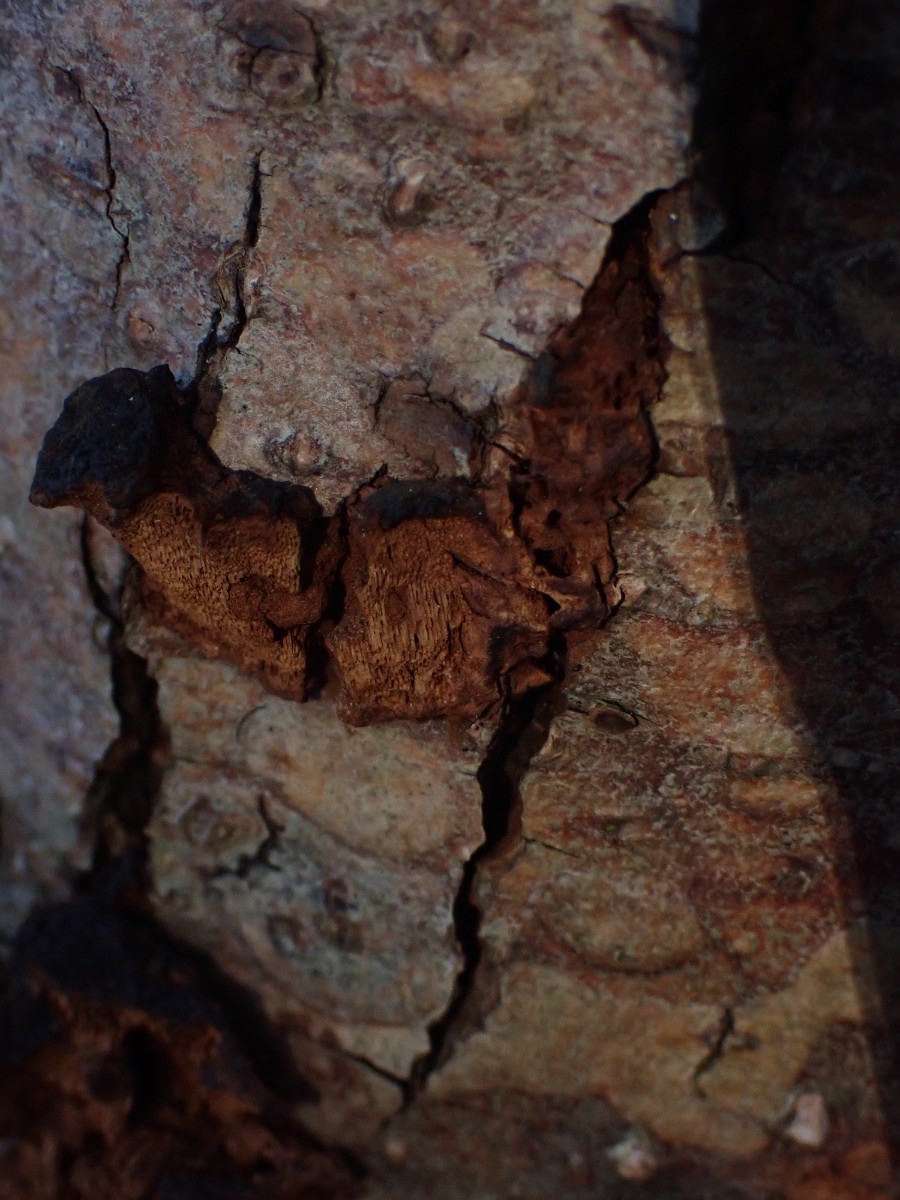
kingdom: Fungi
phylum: Basidiomycota
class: Agaricomycetes
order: Hymenochaetales
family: Hymenochaetaceae
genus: Xanthoporia
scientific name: Xanthoporia radiata
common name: elle-spejlporesvamp
